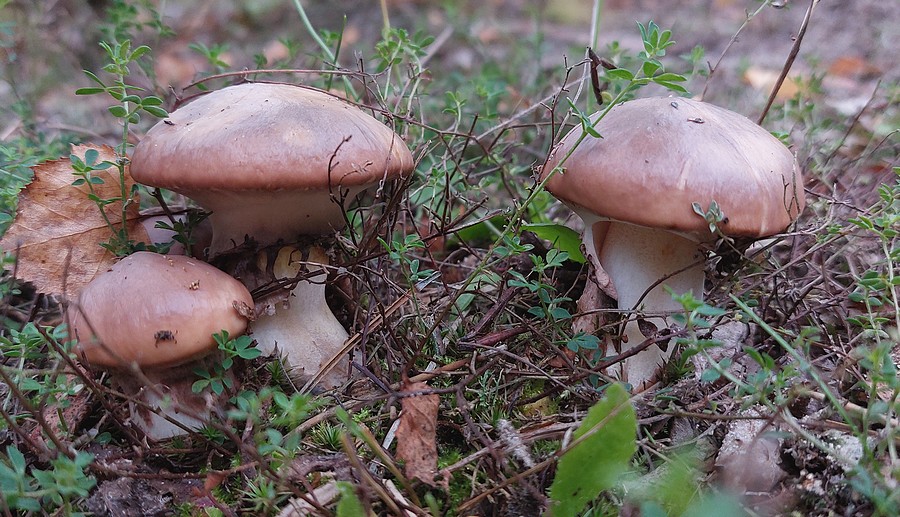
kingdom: Fungi
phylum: Basidiomycota
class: Agaricomycetes
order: Boletales
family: Suillaceae
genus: Suillus
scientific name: Suillus luteus
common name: brungul slimrørhat
